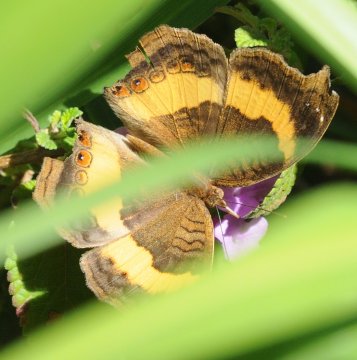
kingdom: Animalia
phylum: Arthropoda
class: Insecta
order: Lepidoptera
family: Nymphalidae
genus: Junonia
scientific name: Junonia terea
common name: Soldier Pansy
